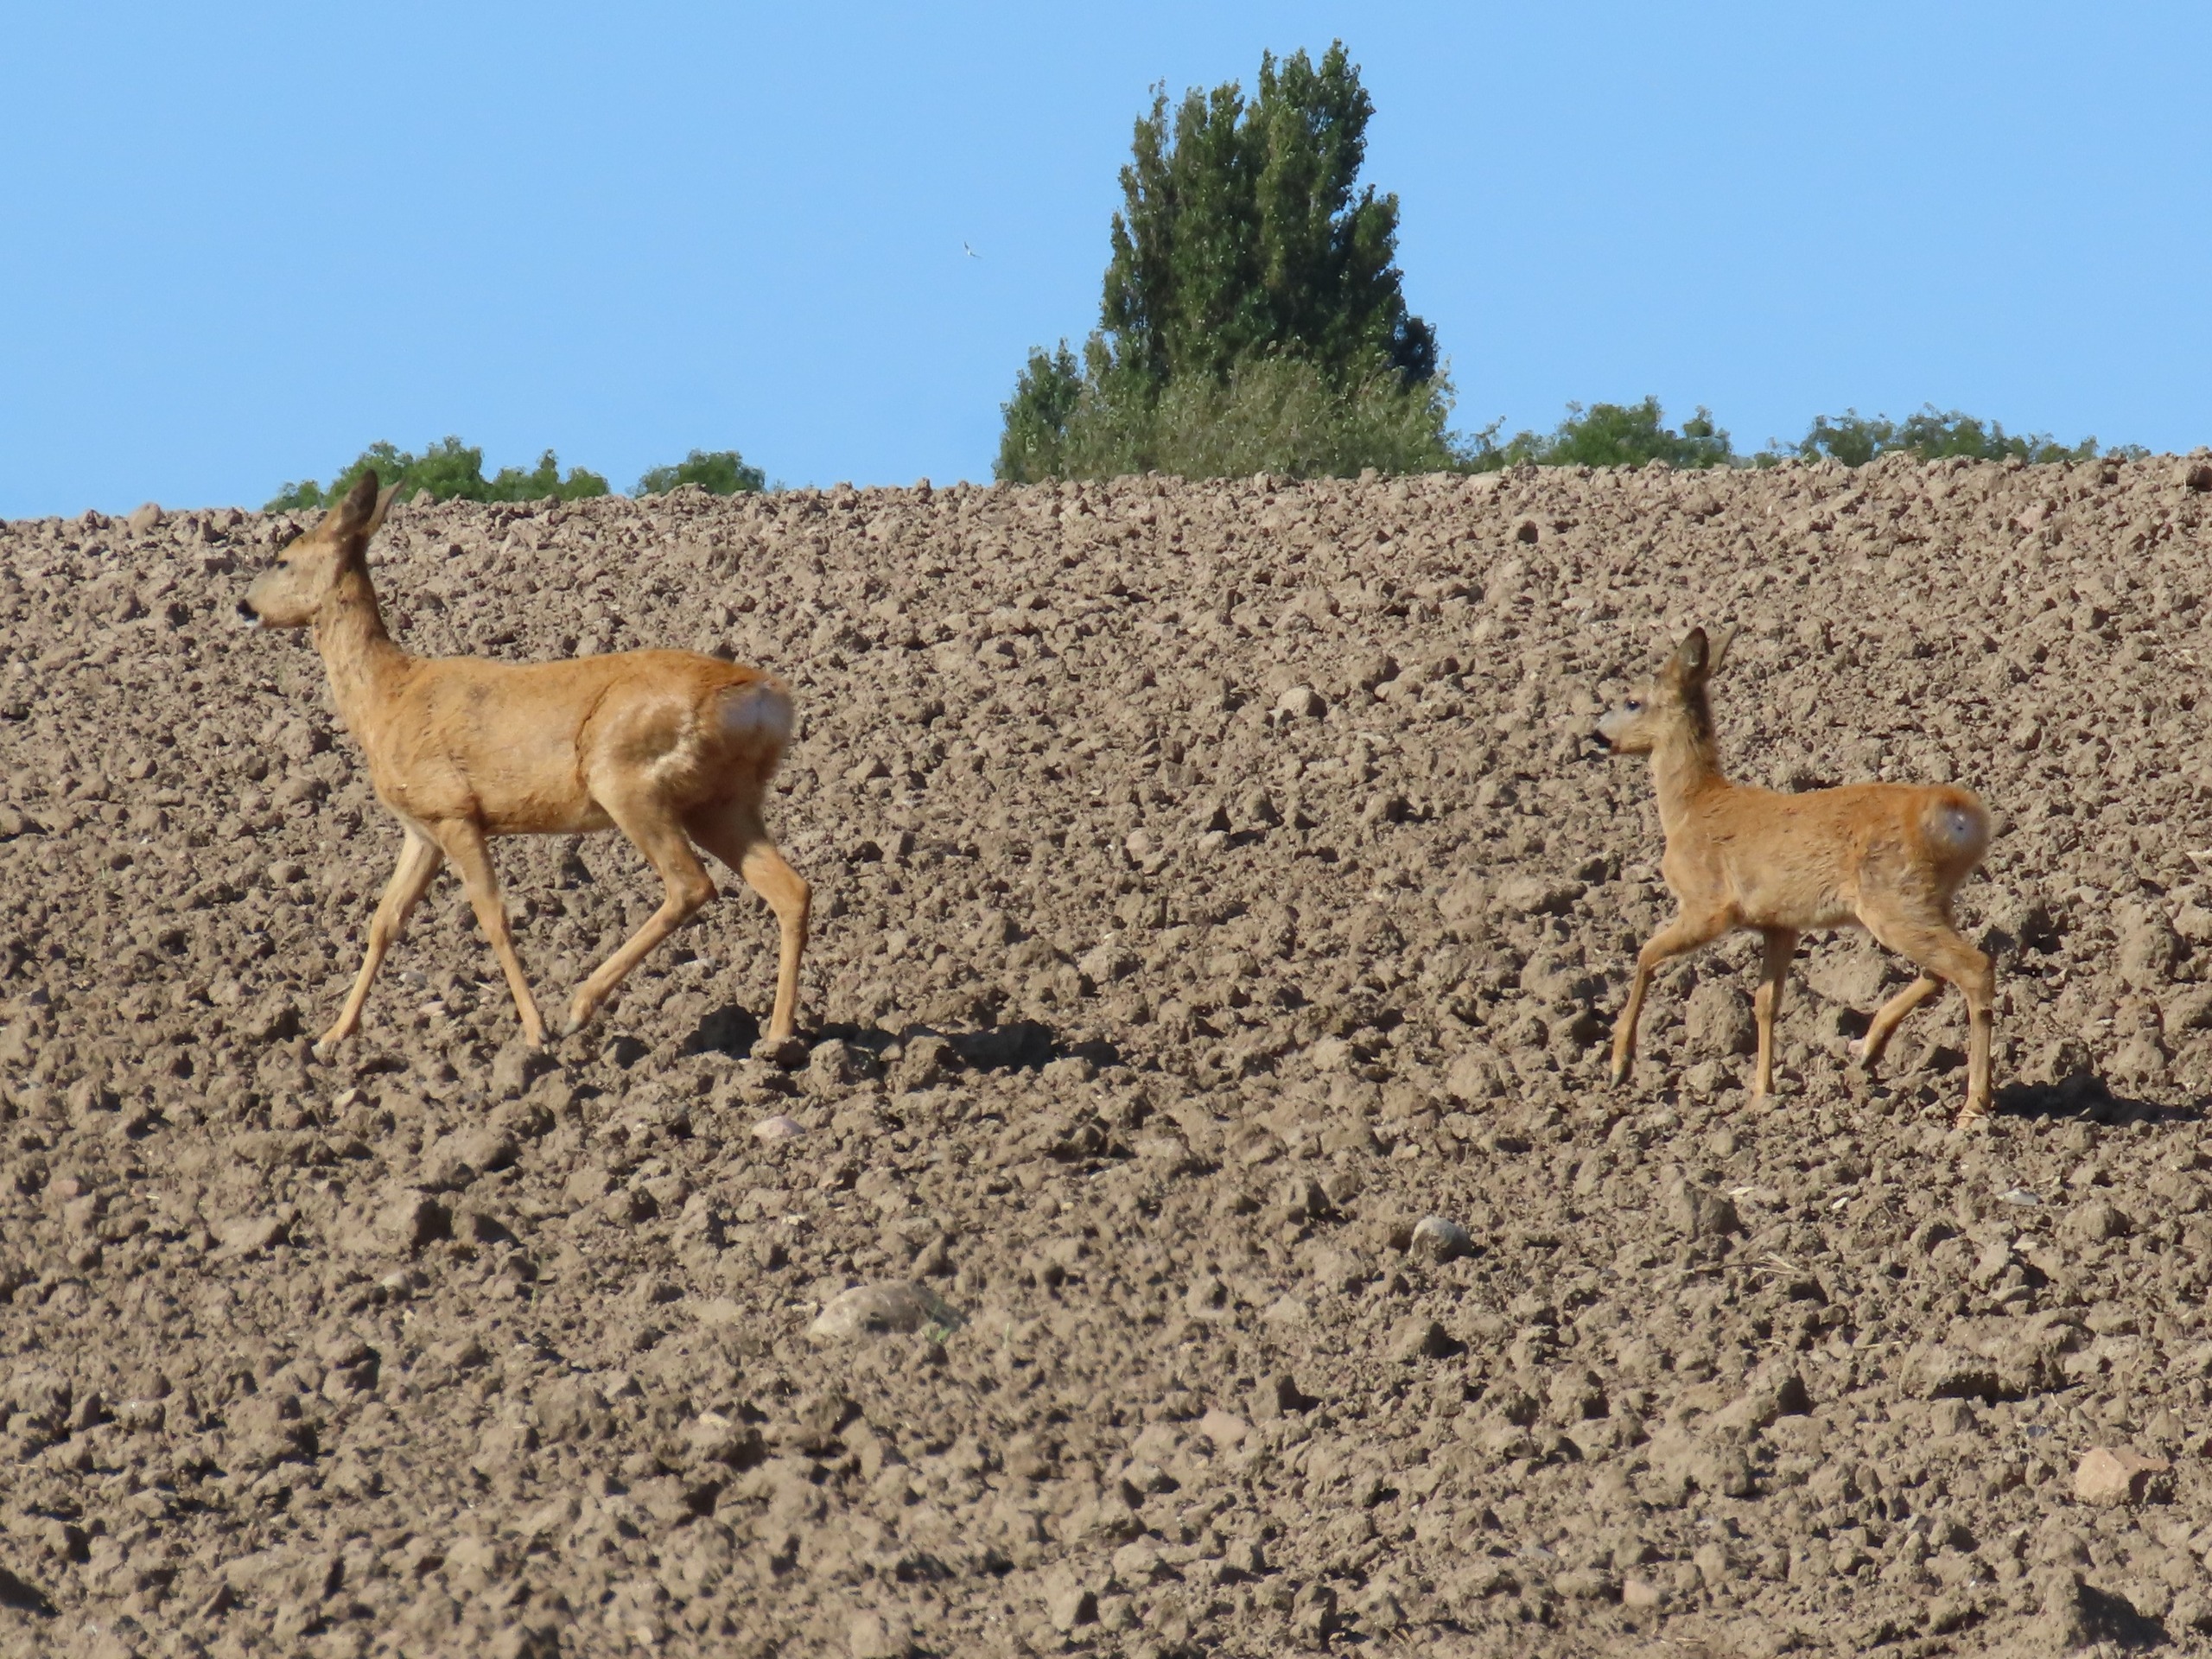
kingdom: Animalia
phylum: Chordata
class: Mammalia
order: Artiodactyla
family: Cervidae
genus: Capreolus
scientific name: Capreolus capreolus
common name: Rådyr
